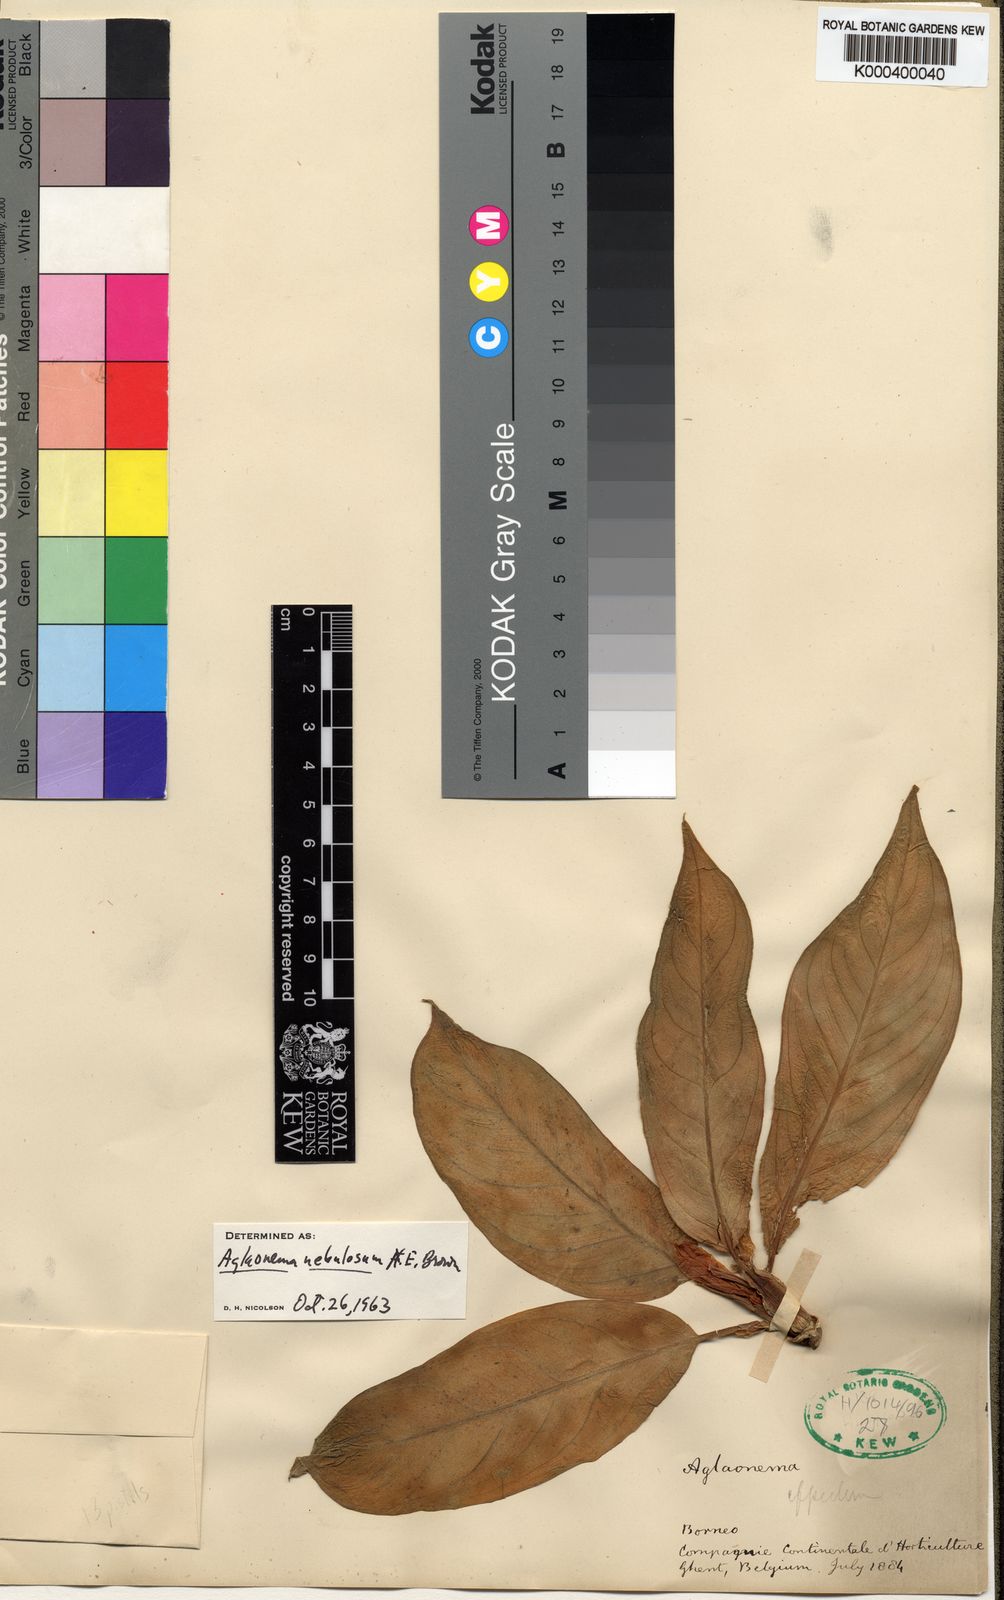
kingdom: Plantae
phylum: Tracheophyta
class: Liliopsida
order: Alismatales
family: Araceae
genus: Aglaonema
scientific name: Aglaonema nebulosum
